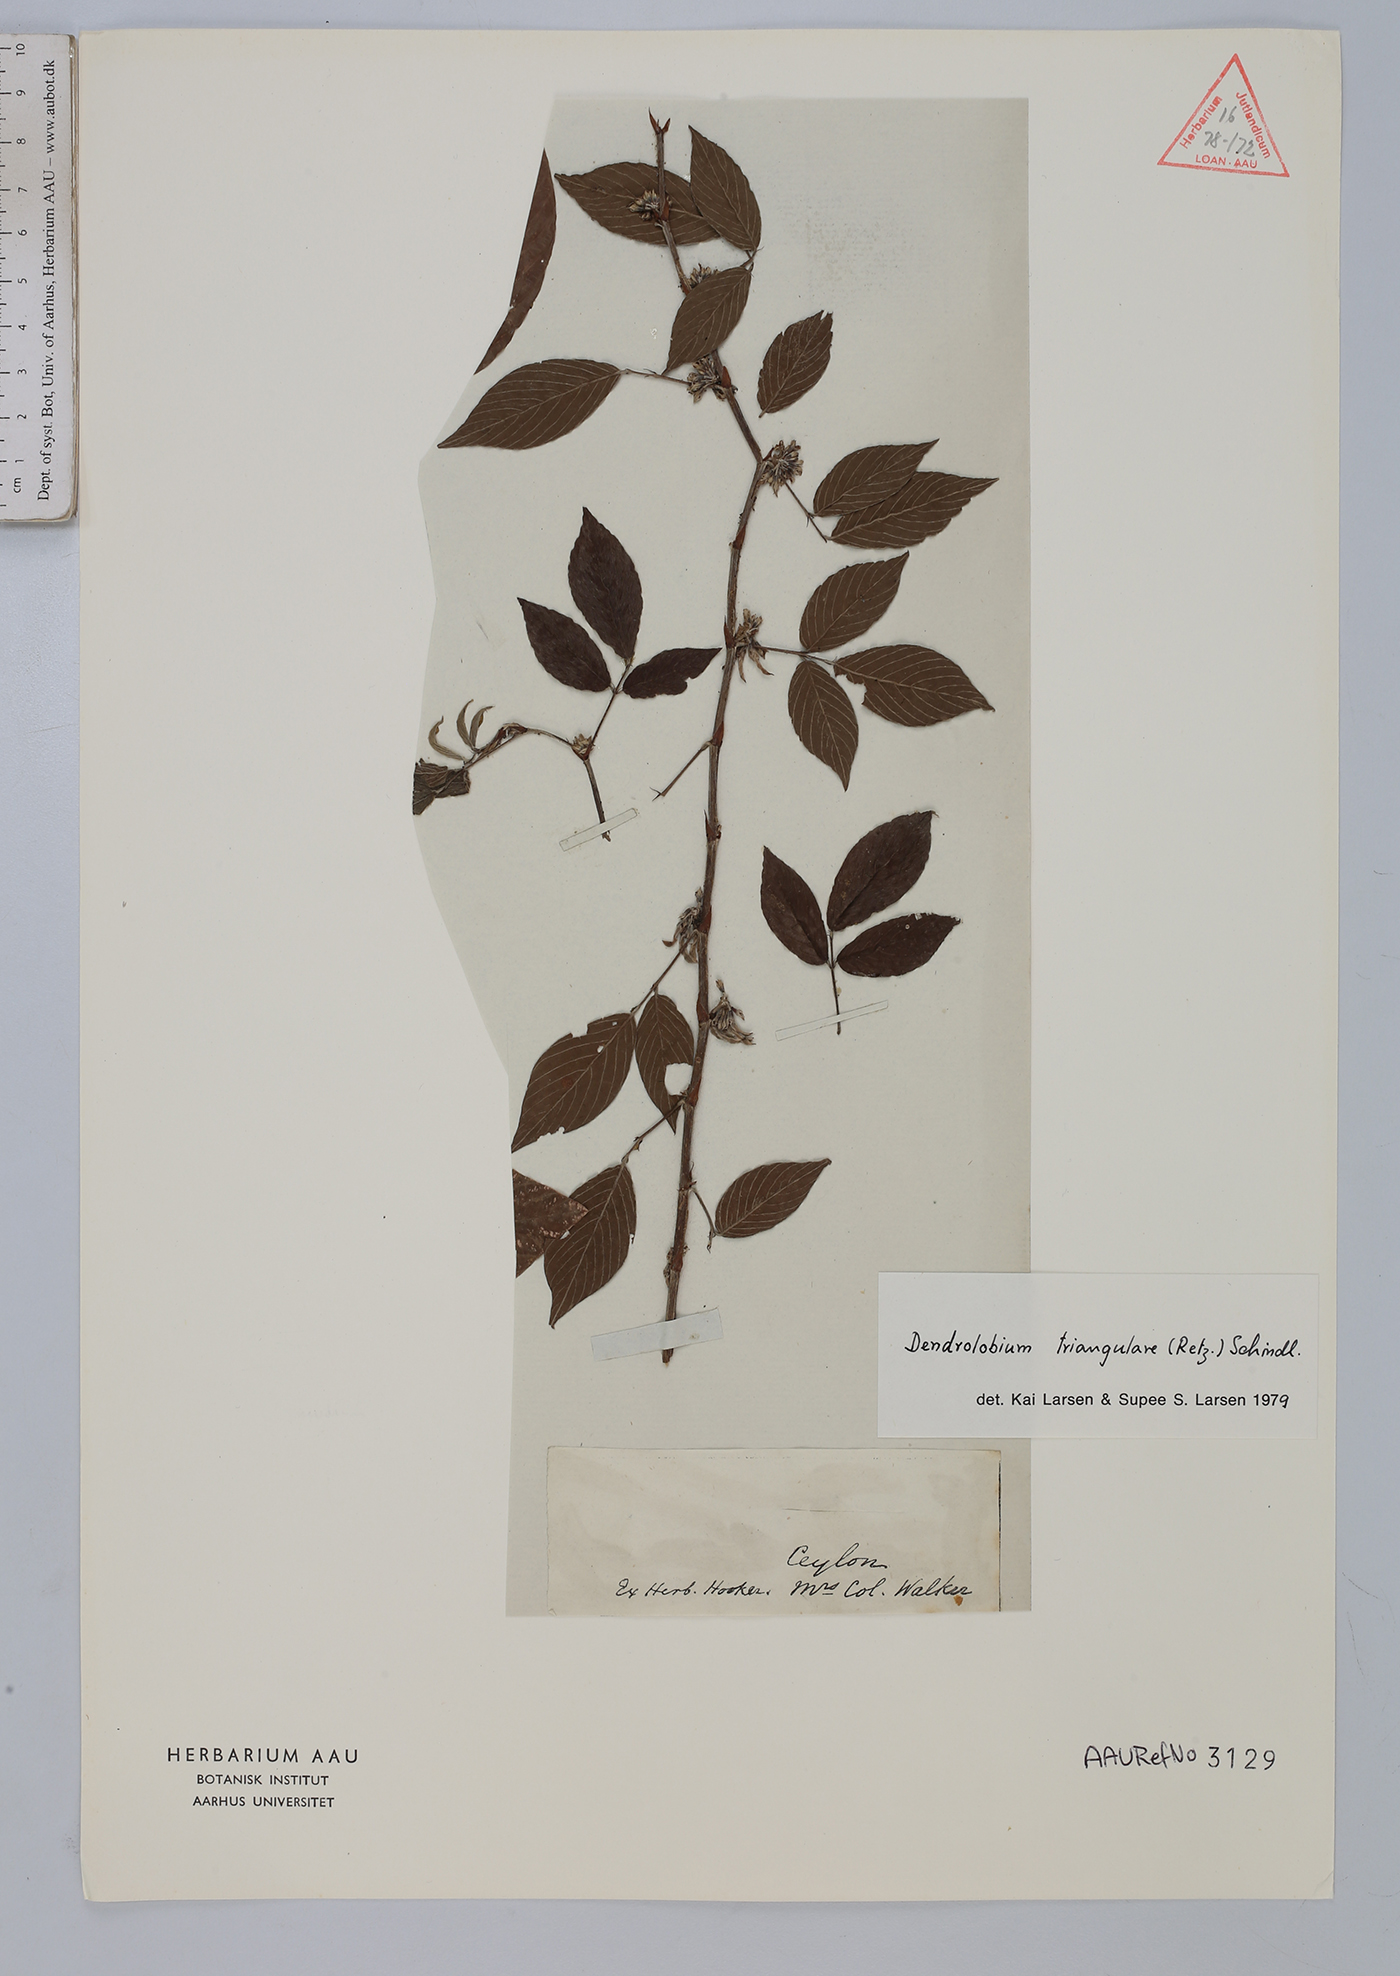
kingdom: Plantae
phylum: Tracheophyta
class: Magnoliopsida
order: Fabales
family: Fabaceae
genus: Dendrolobium
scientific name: Dendrolobium triangulare
